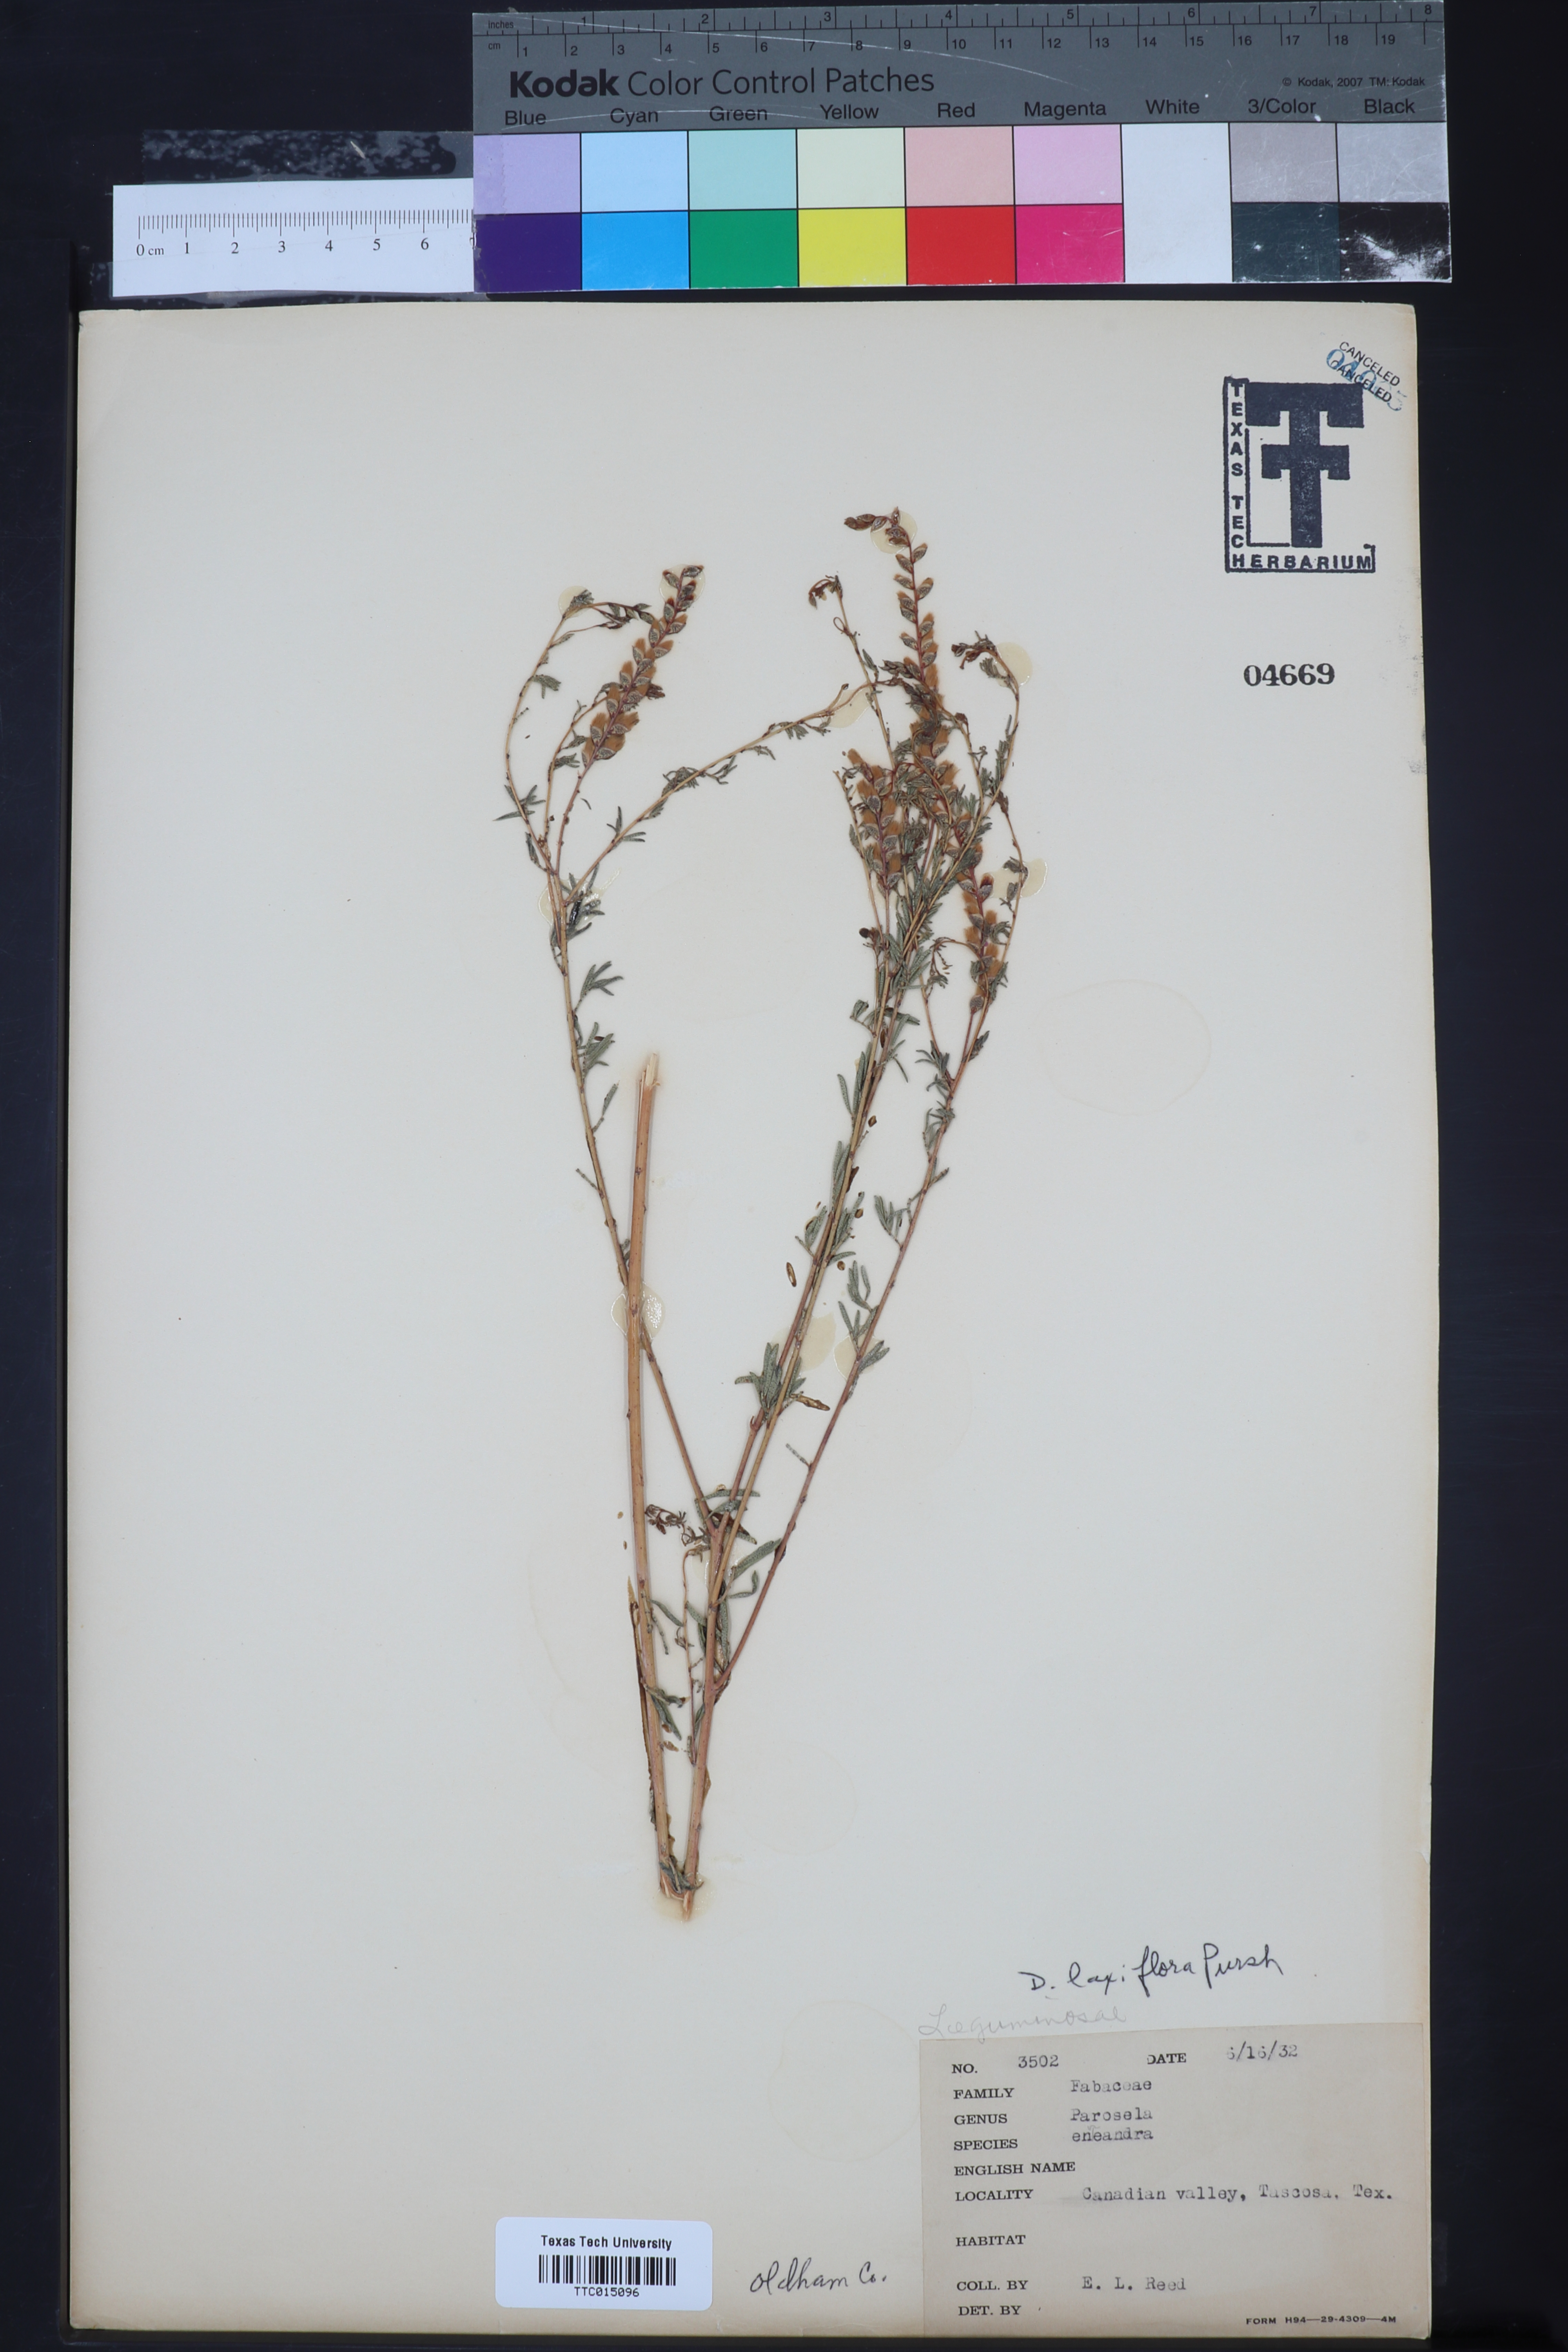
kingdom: Plantae
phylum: Tracheophyta
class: Magnoliopsida
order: Fabales
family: Fabaceae
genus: Dalea
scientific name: Dalea hegewischiana
